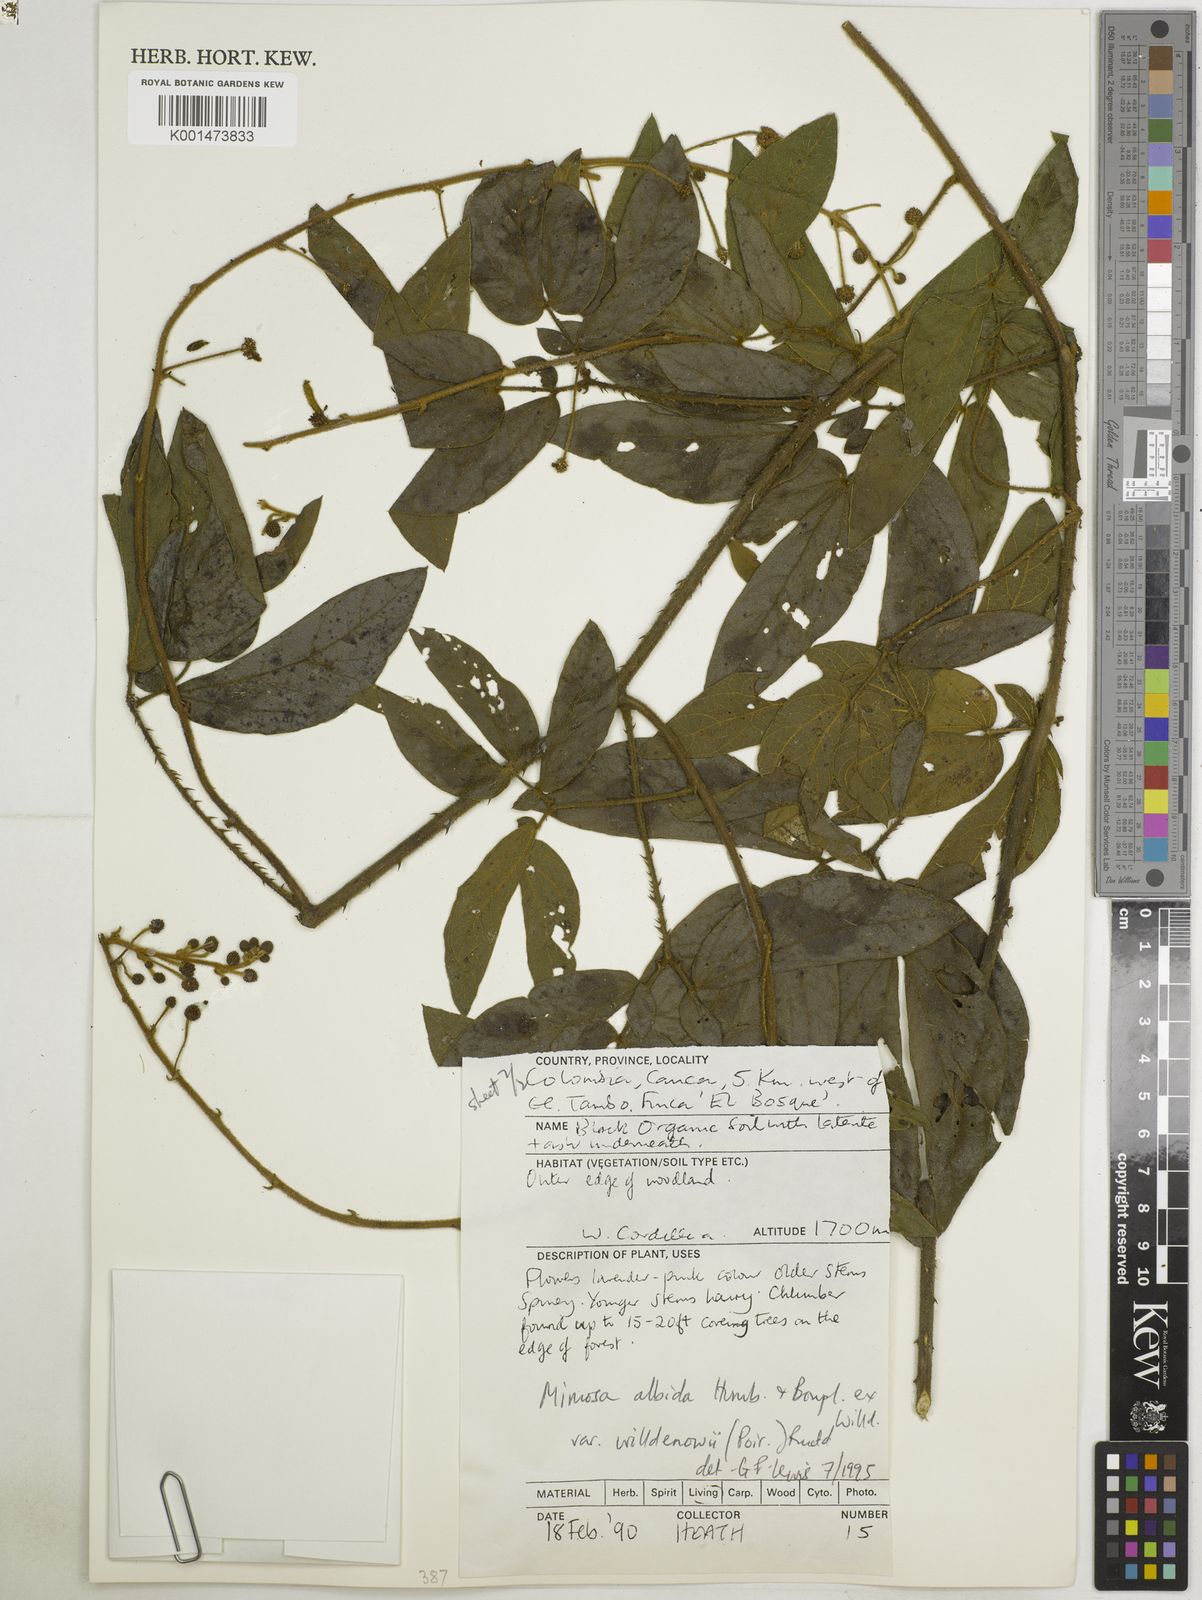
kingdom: Plantae
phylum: Tracheophyta
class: Magnoliopsida
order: Fabales
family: Fabaceae
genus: Mimosa
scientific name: Mimosa albida
